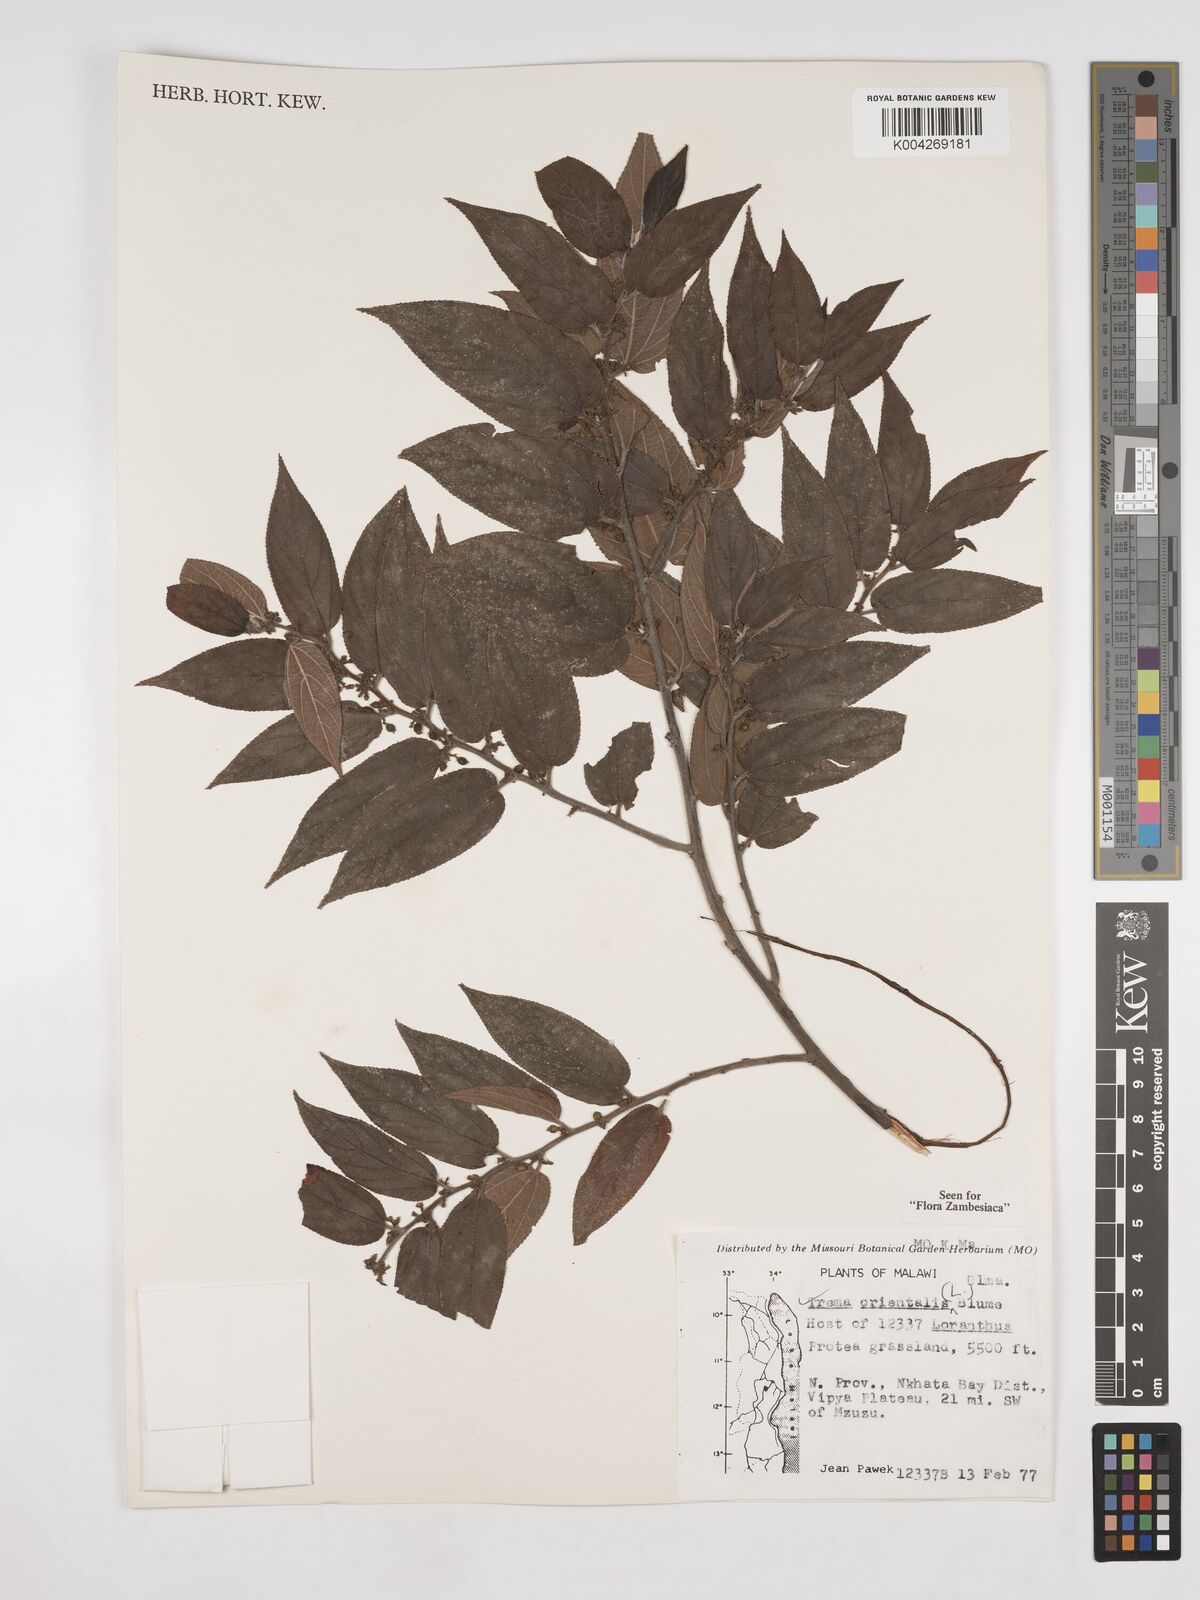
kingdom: Plantae
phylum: Tracheophyta
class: Magnoliopsida
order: Rosales
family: Cannabaceae
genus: Trema
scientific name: Trema orientale
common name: Indian charcoal tree
